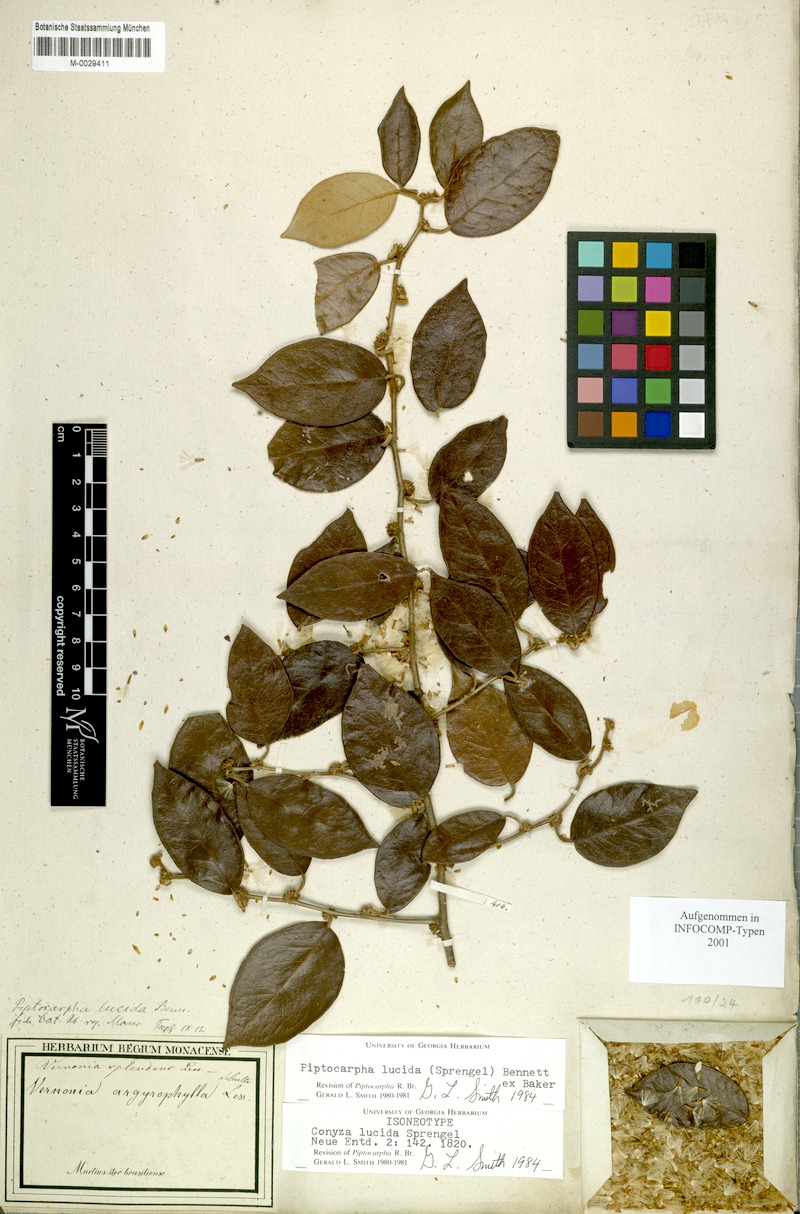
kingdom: Plantae
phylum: Tracheophyta
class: Magnoliopsida
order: Asterales
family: Asteraceae
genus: Piptocarpha
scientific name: Piptocarpha lucida
